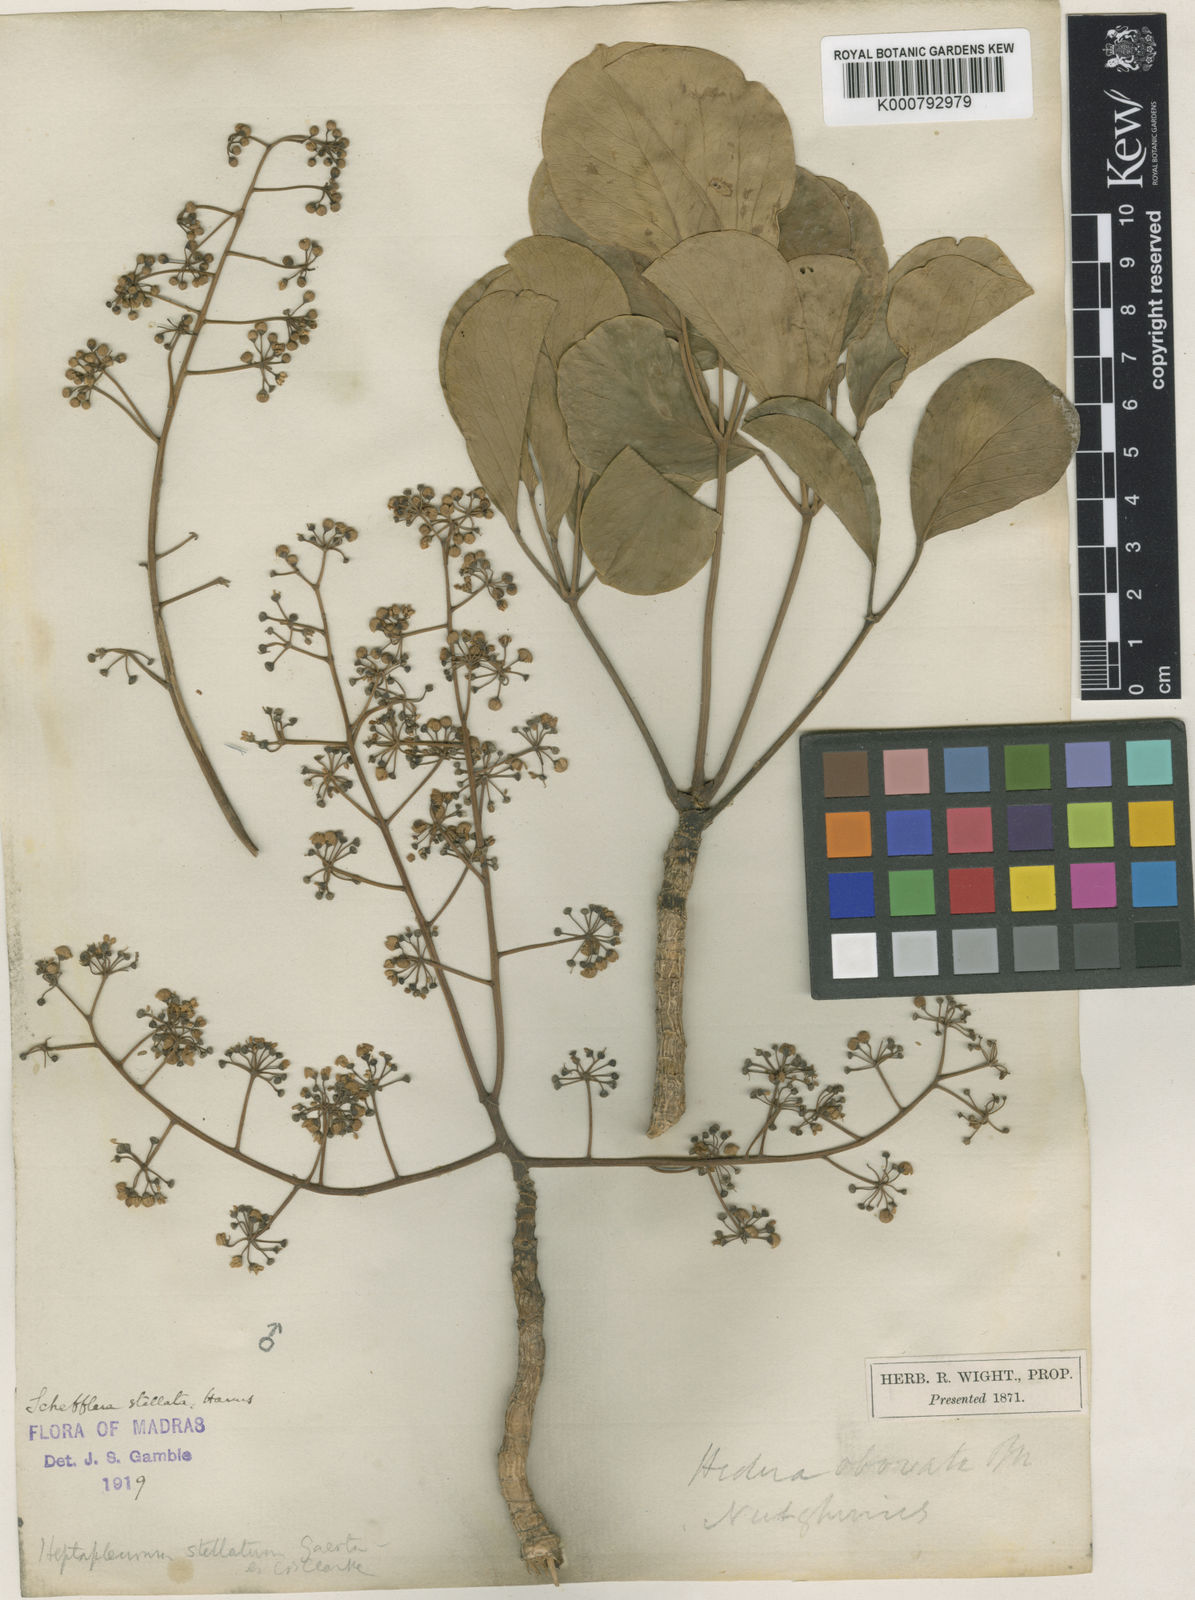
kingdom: Plantae
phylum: Tracheophyta
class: Magnoliopsida
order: Apiales
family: Araliaceae
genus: Schefflera
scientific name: Schefflera
